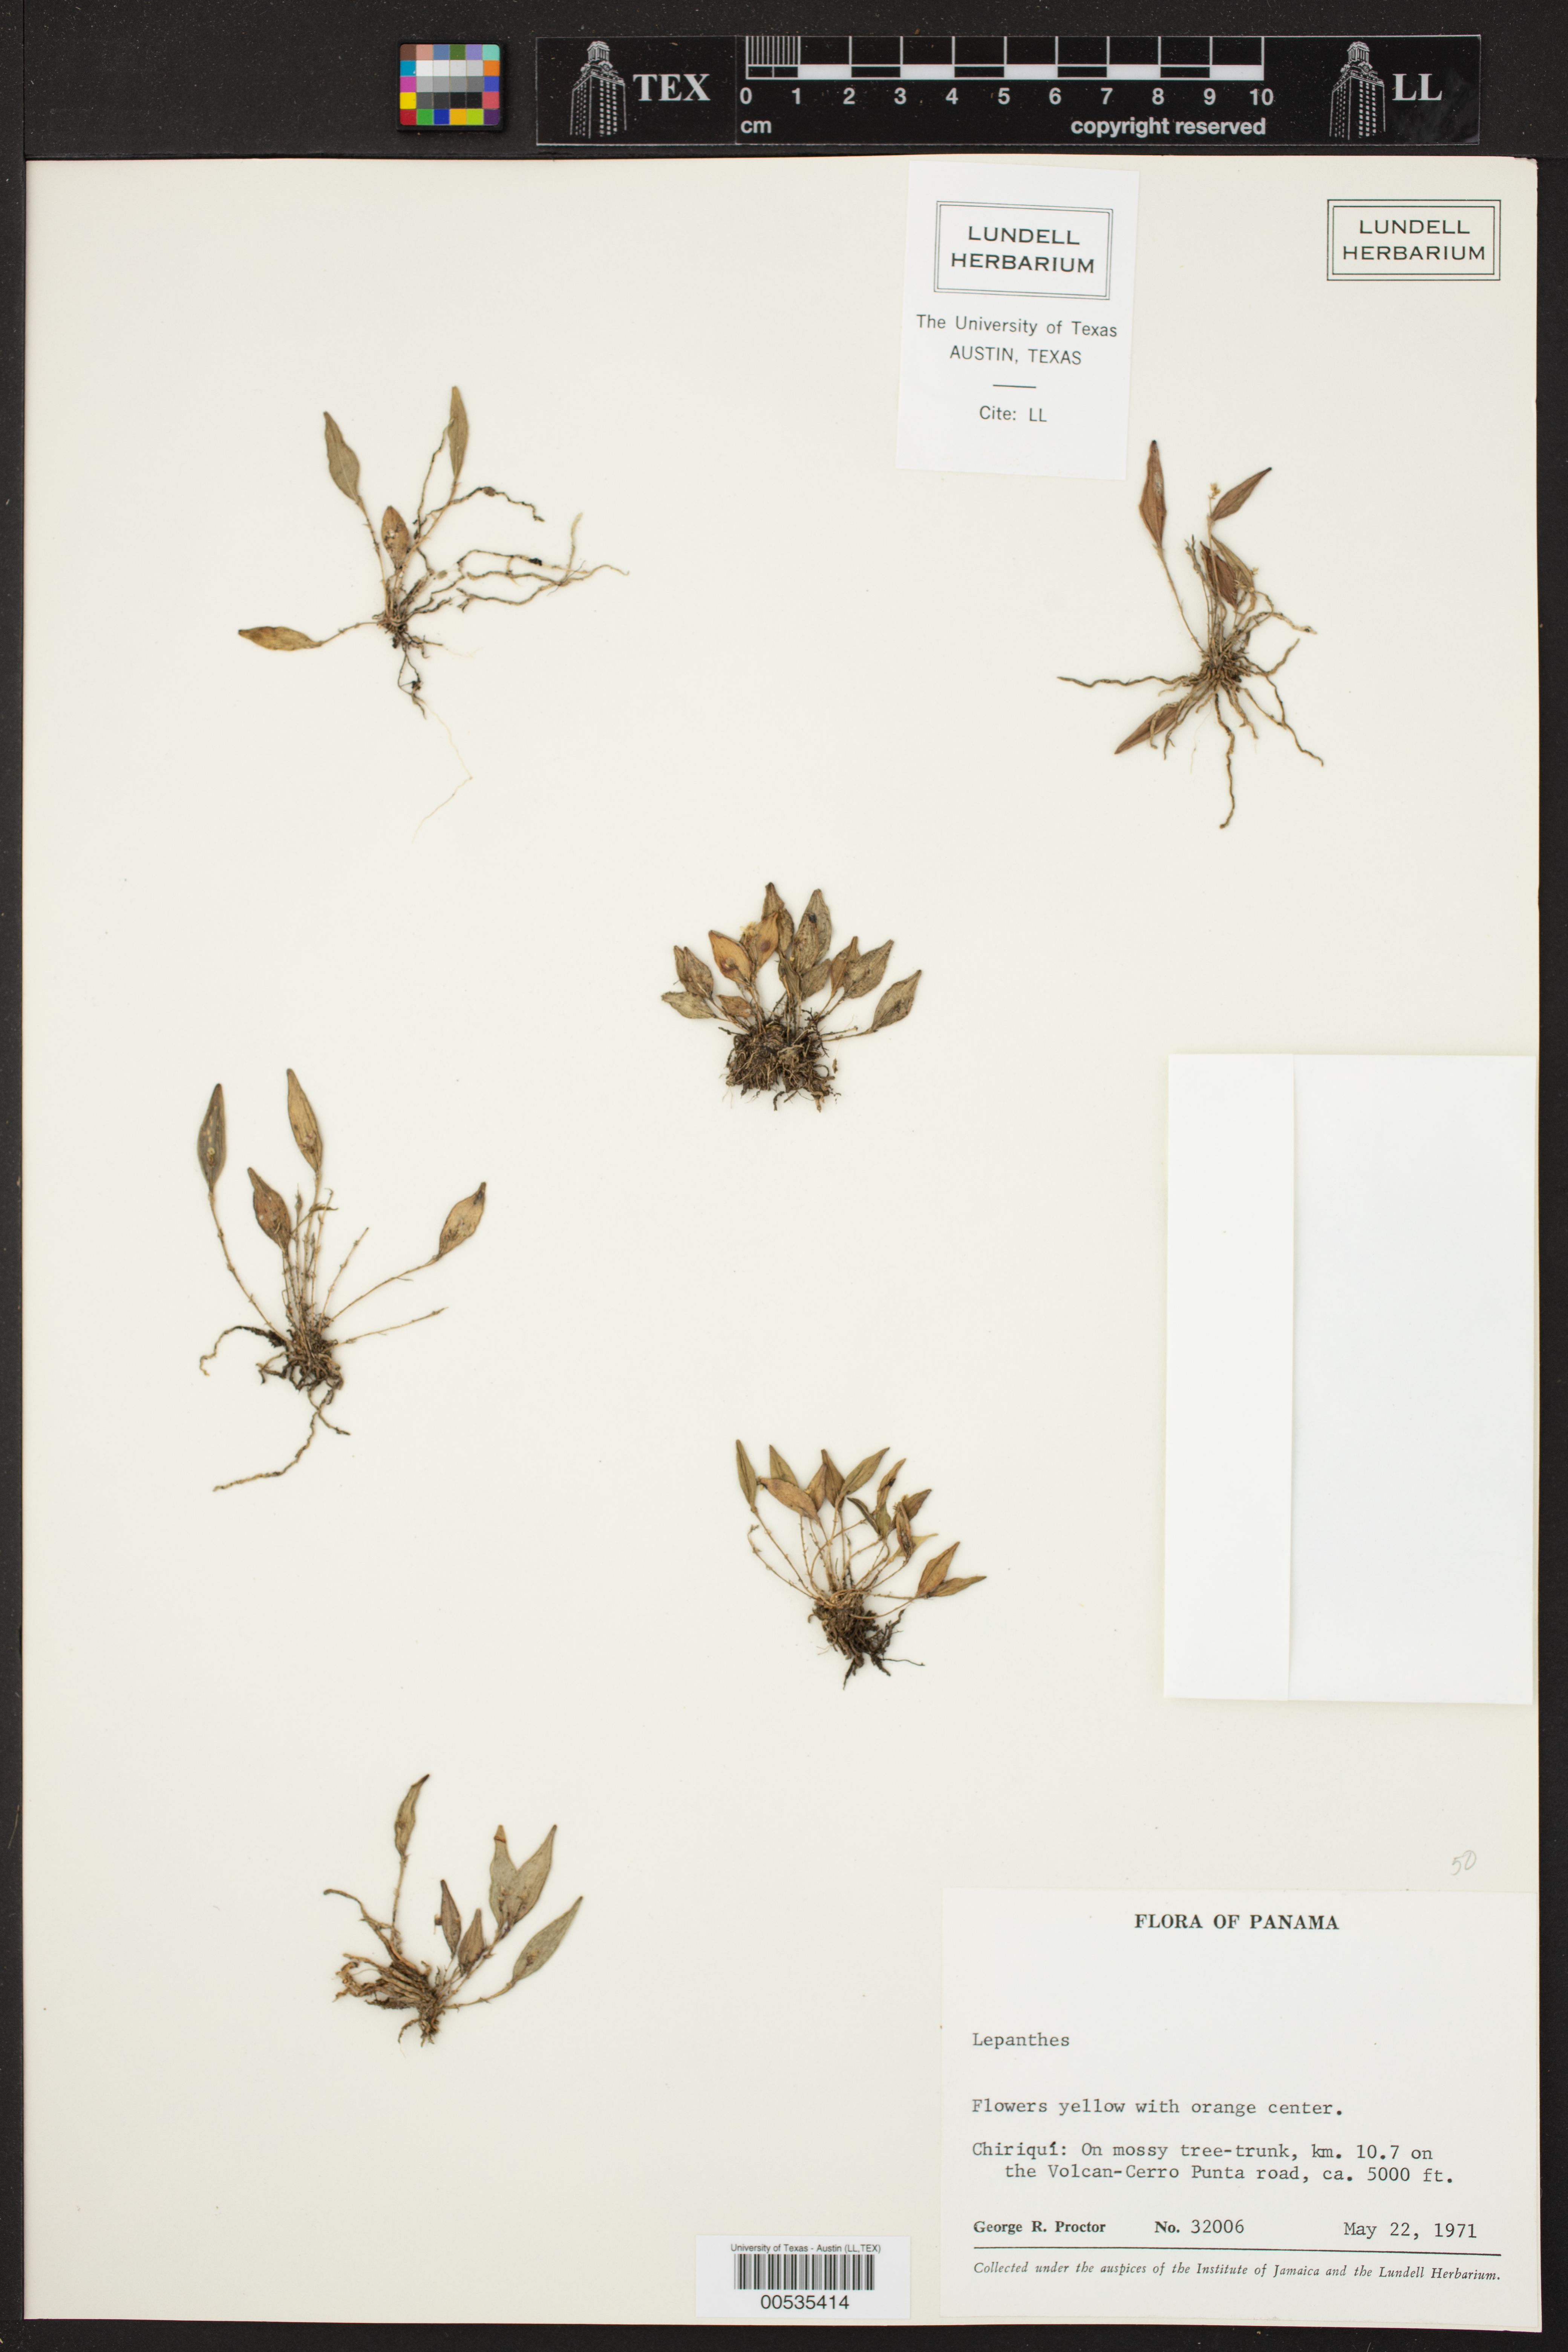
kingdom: Plantae
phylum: Tracheophyta
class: Liliopsida
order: Asparagales
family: Orchidaceae
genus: Lepanthes
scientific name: Lepanthes
